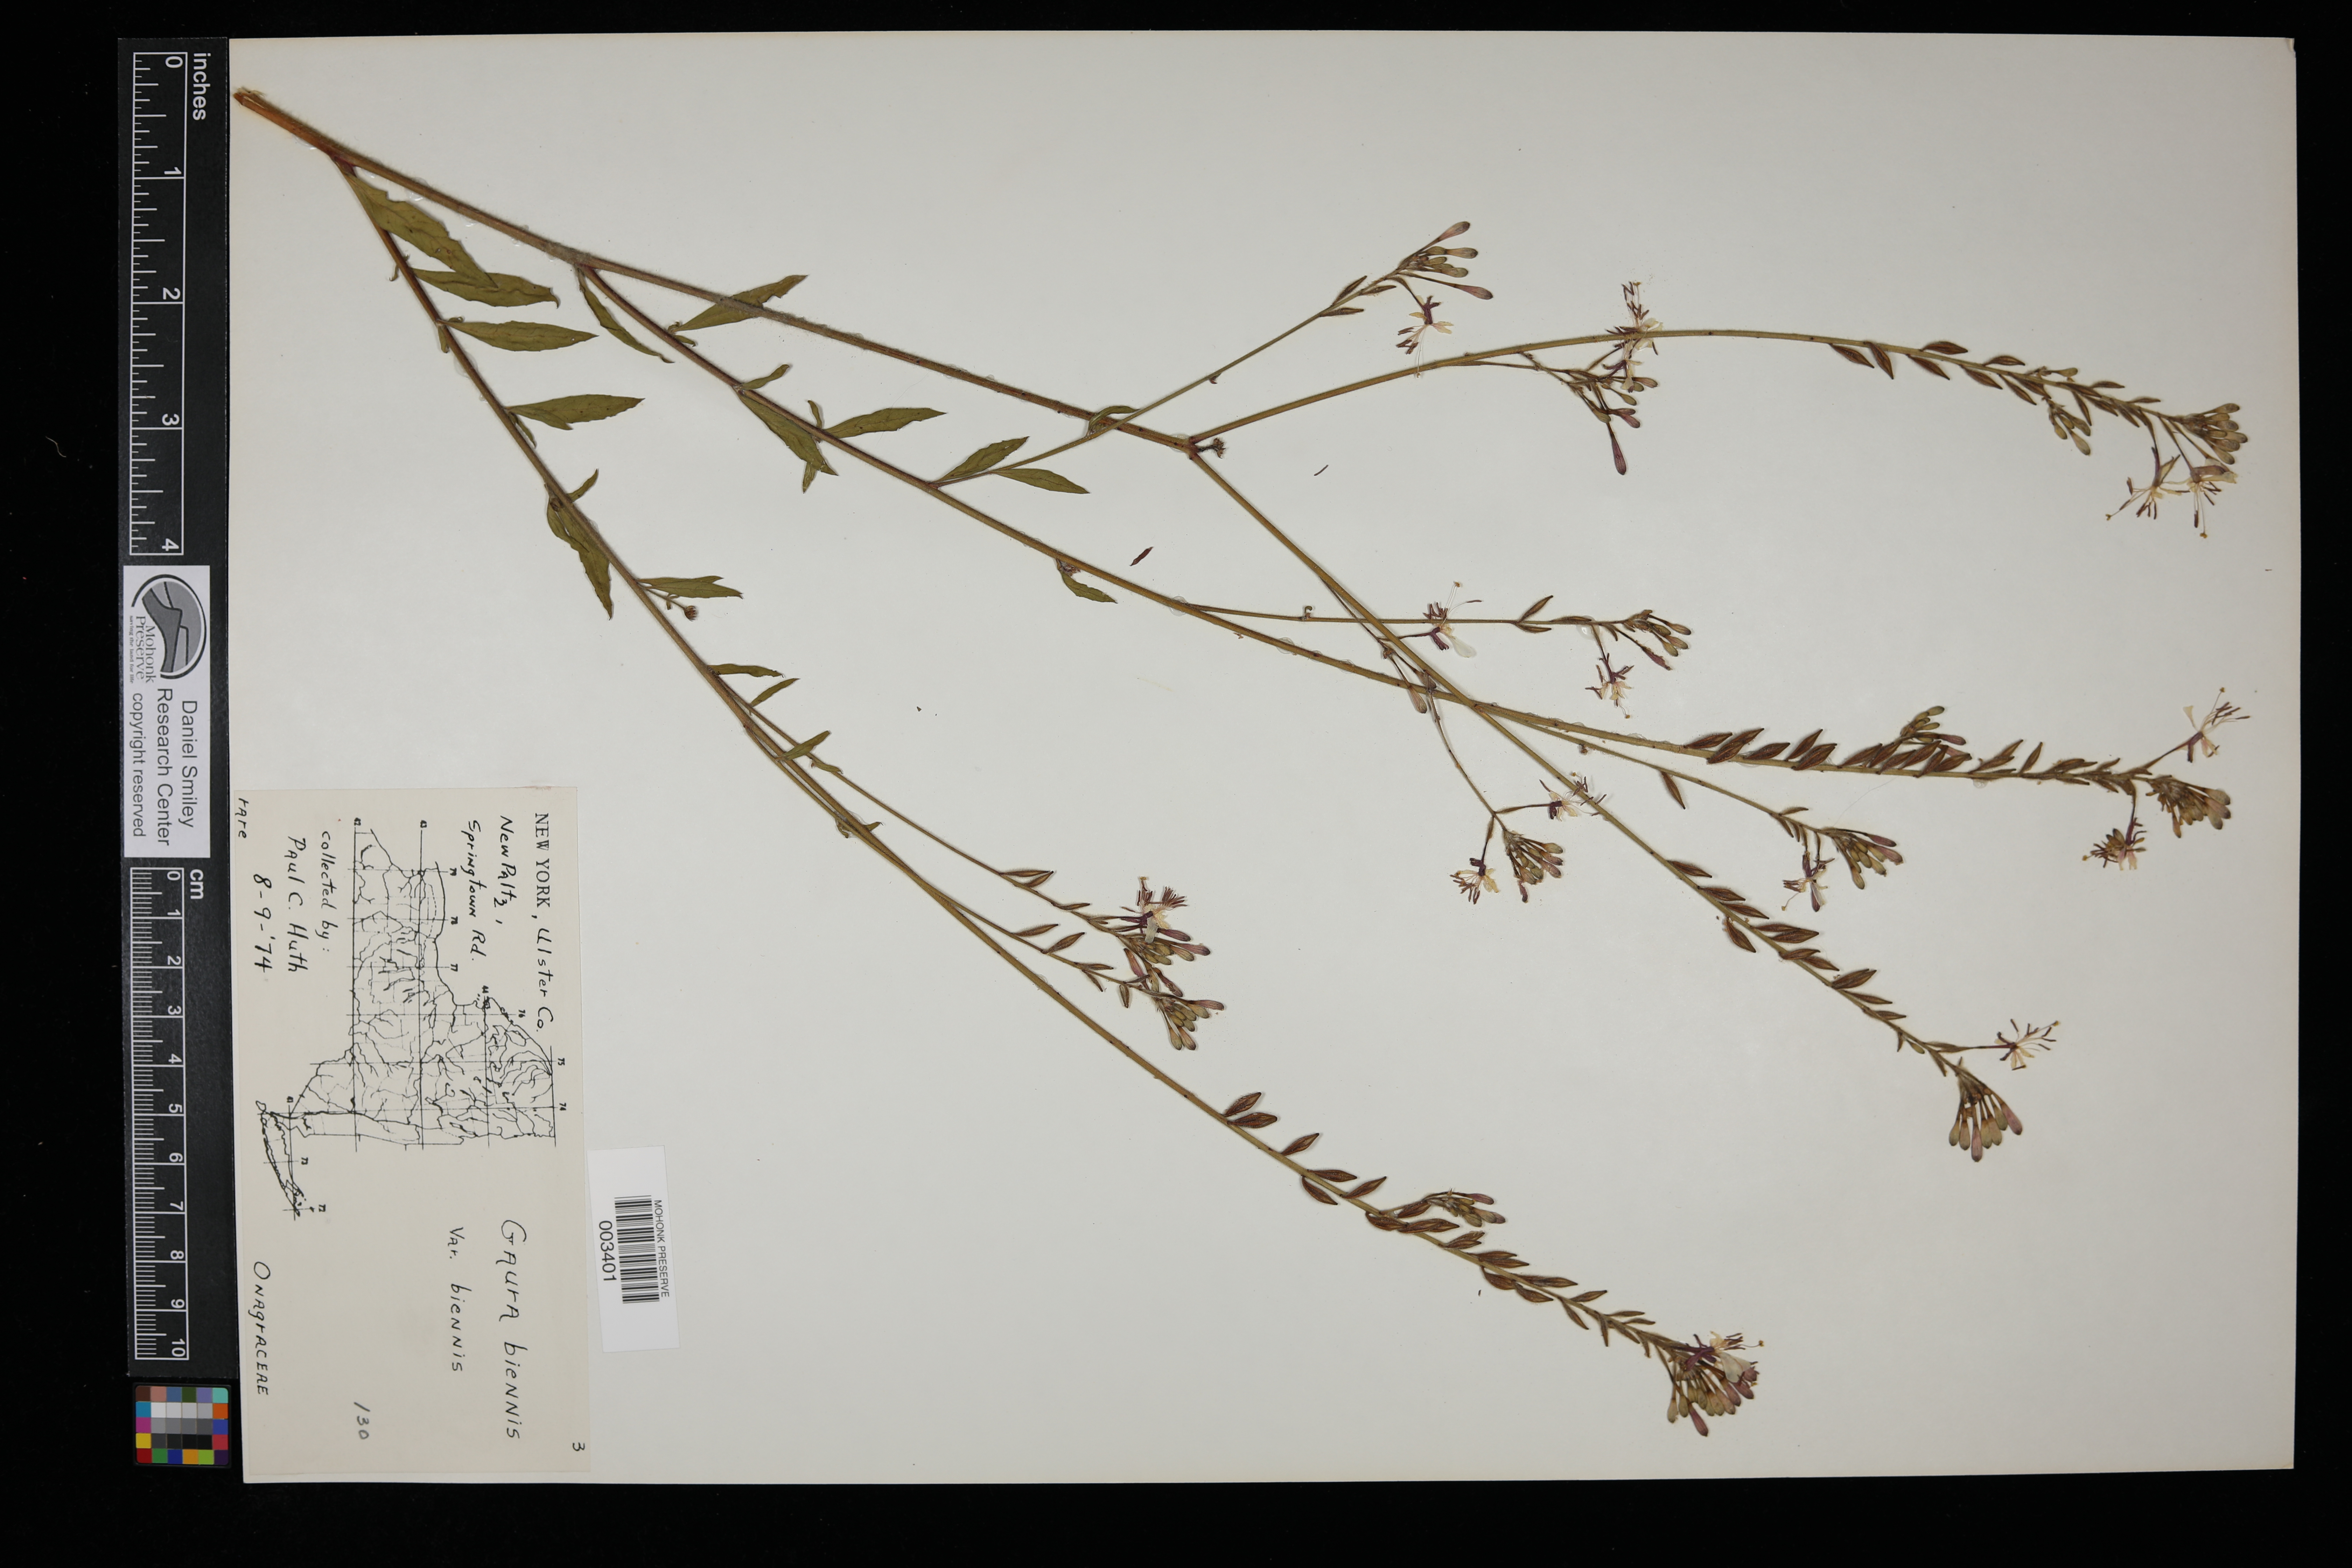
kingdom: Plantae
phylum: Tracheophyta
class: Magnoliopsida
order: Myrtales
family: Onagraceae
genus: Oenothera
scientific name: Oenothera gaura
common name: Biennial beeblossom
